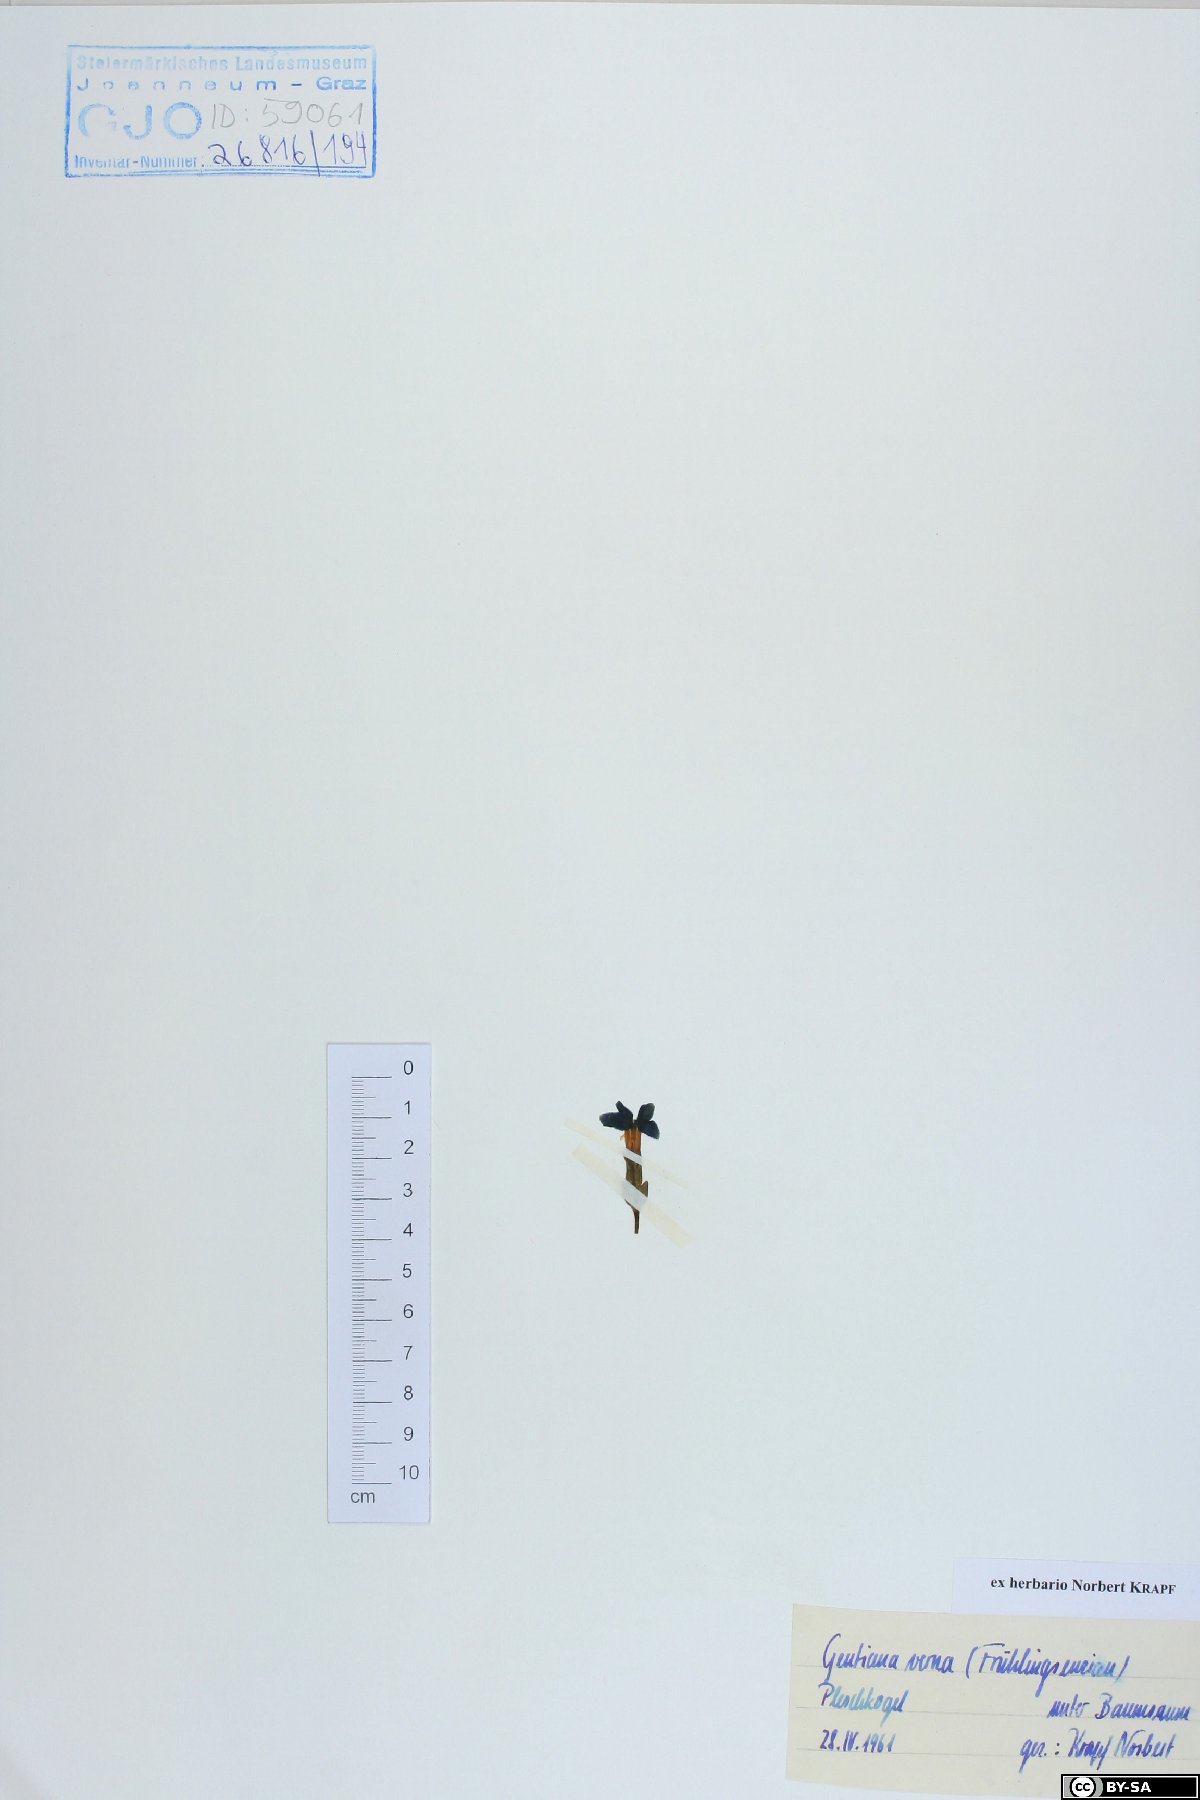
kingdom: Plantae
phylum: Tracheophyta
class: Magnoliopsida
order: Gentianales
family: Gentianaceae
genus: Gentiana
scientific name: Gentiana verna
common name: Spring gentian
